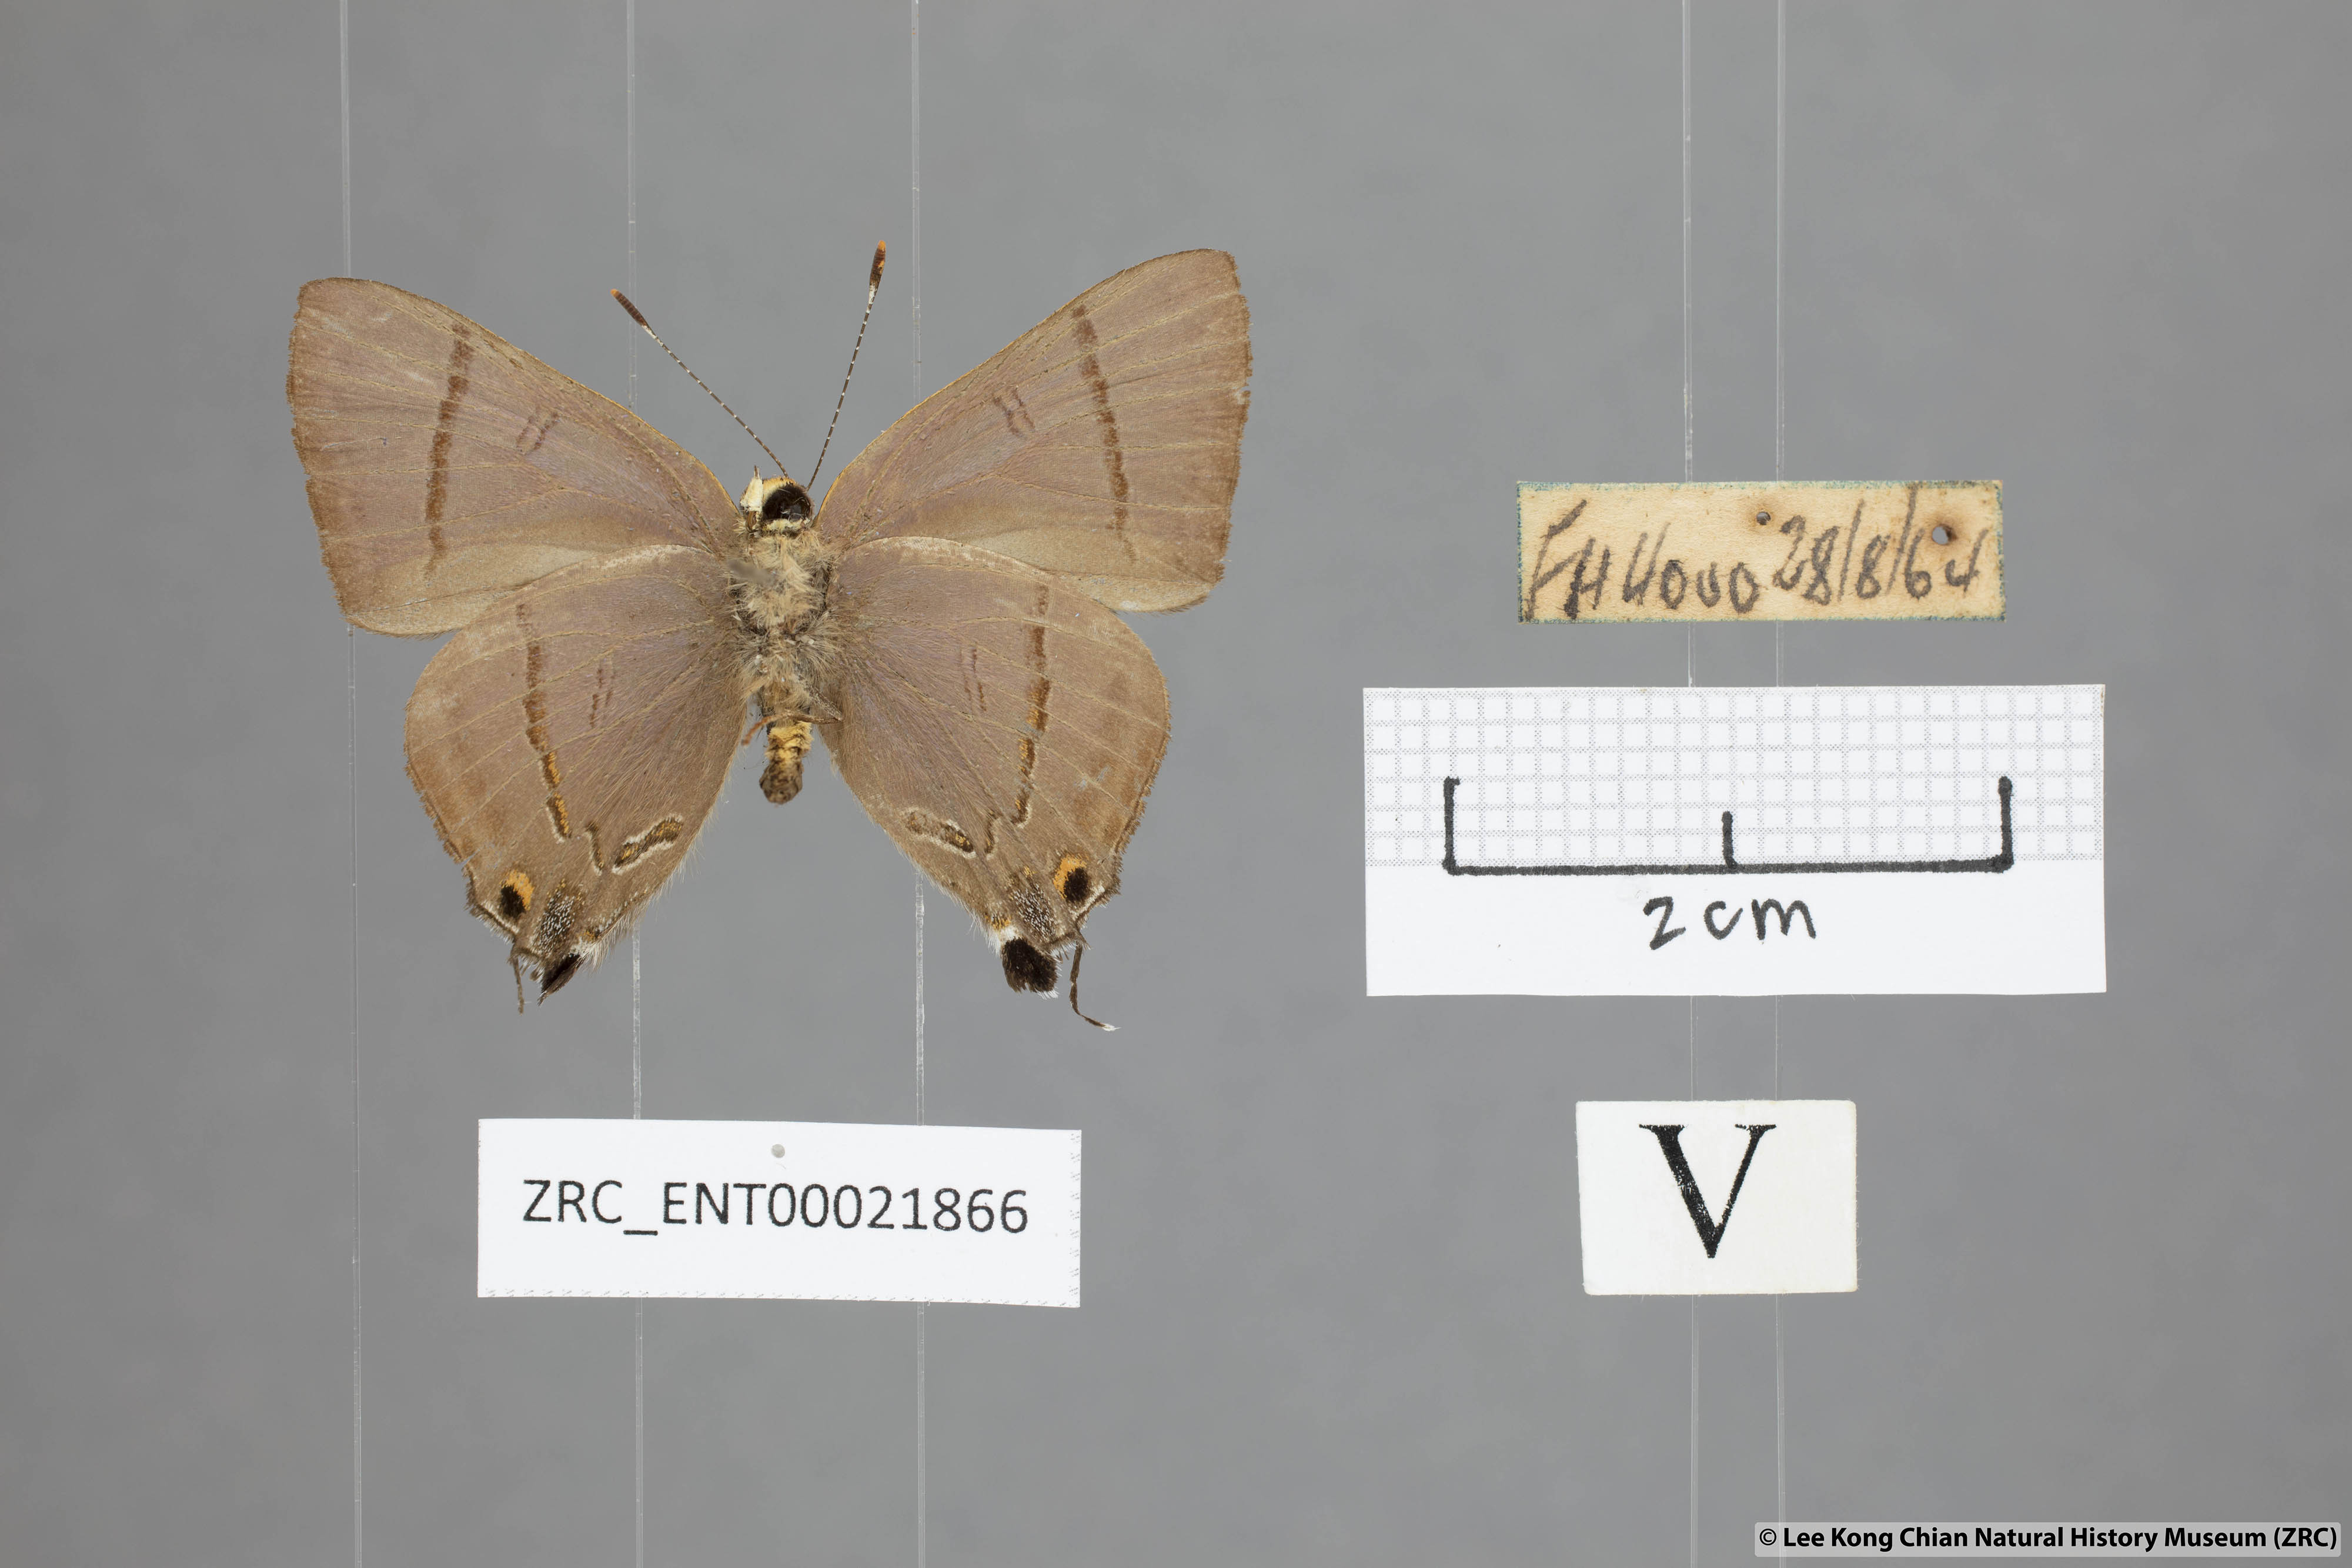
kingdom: Animalia
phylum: Arthropoda
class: Insecta
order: Lepidoptera
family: Lycaenidae
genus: Rapala
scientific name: Rapala nissa
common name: Common flash
